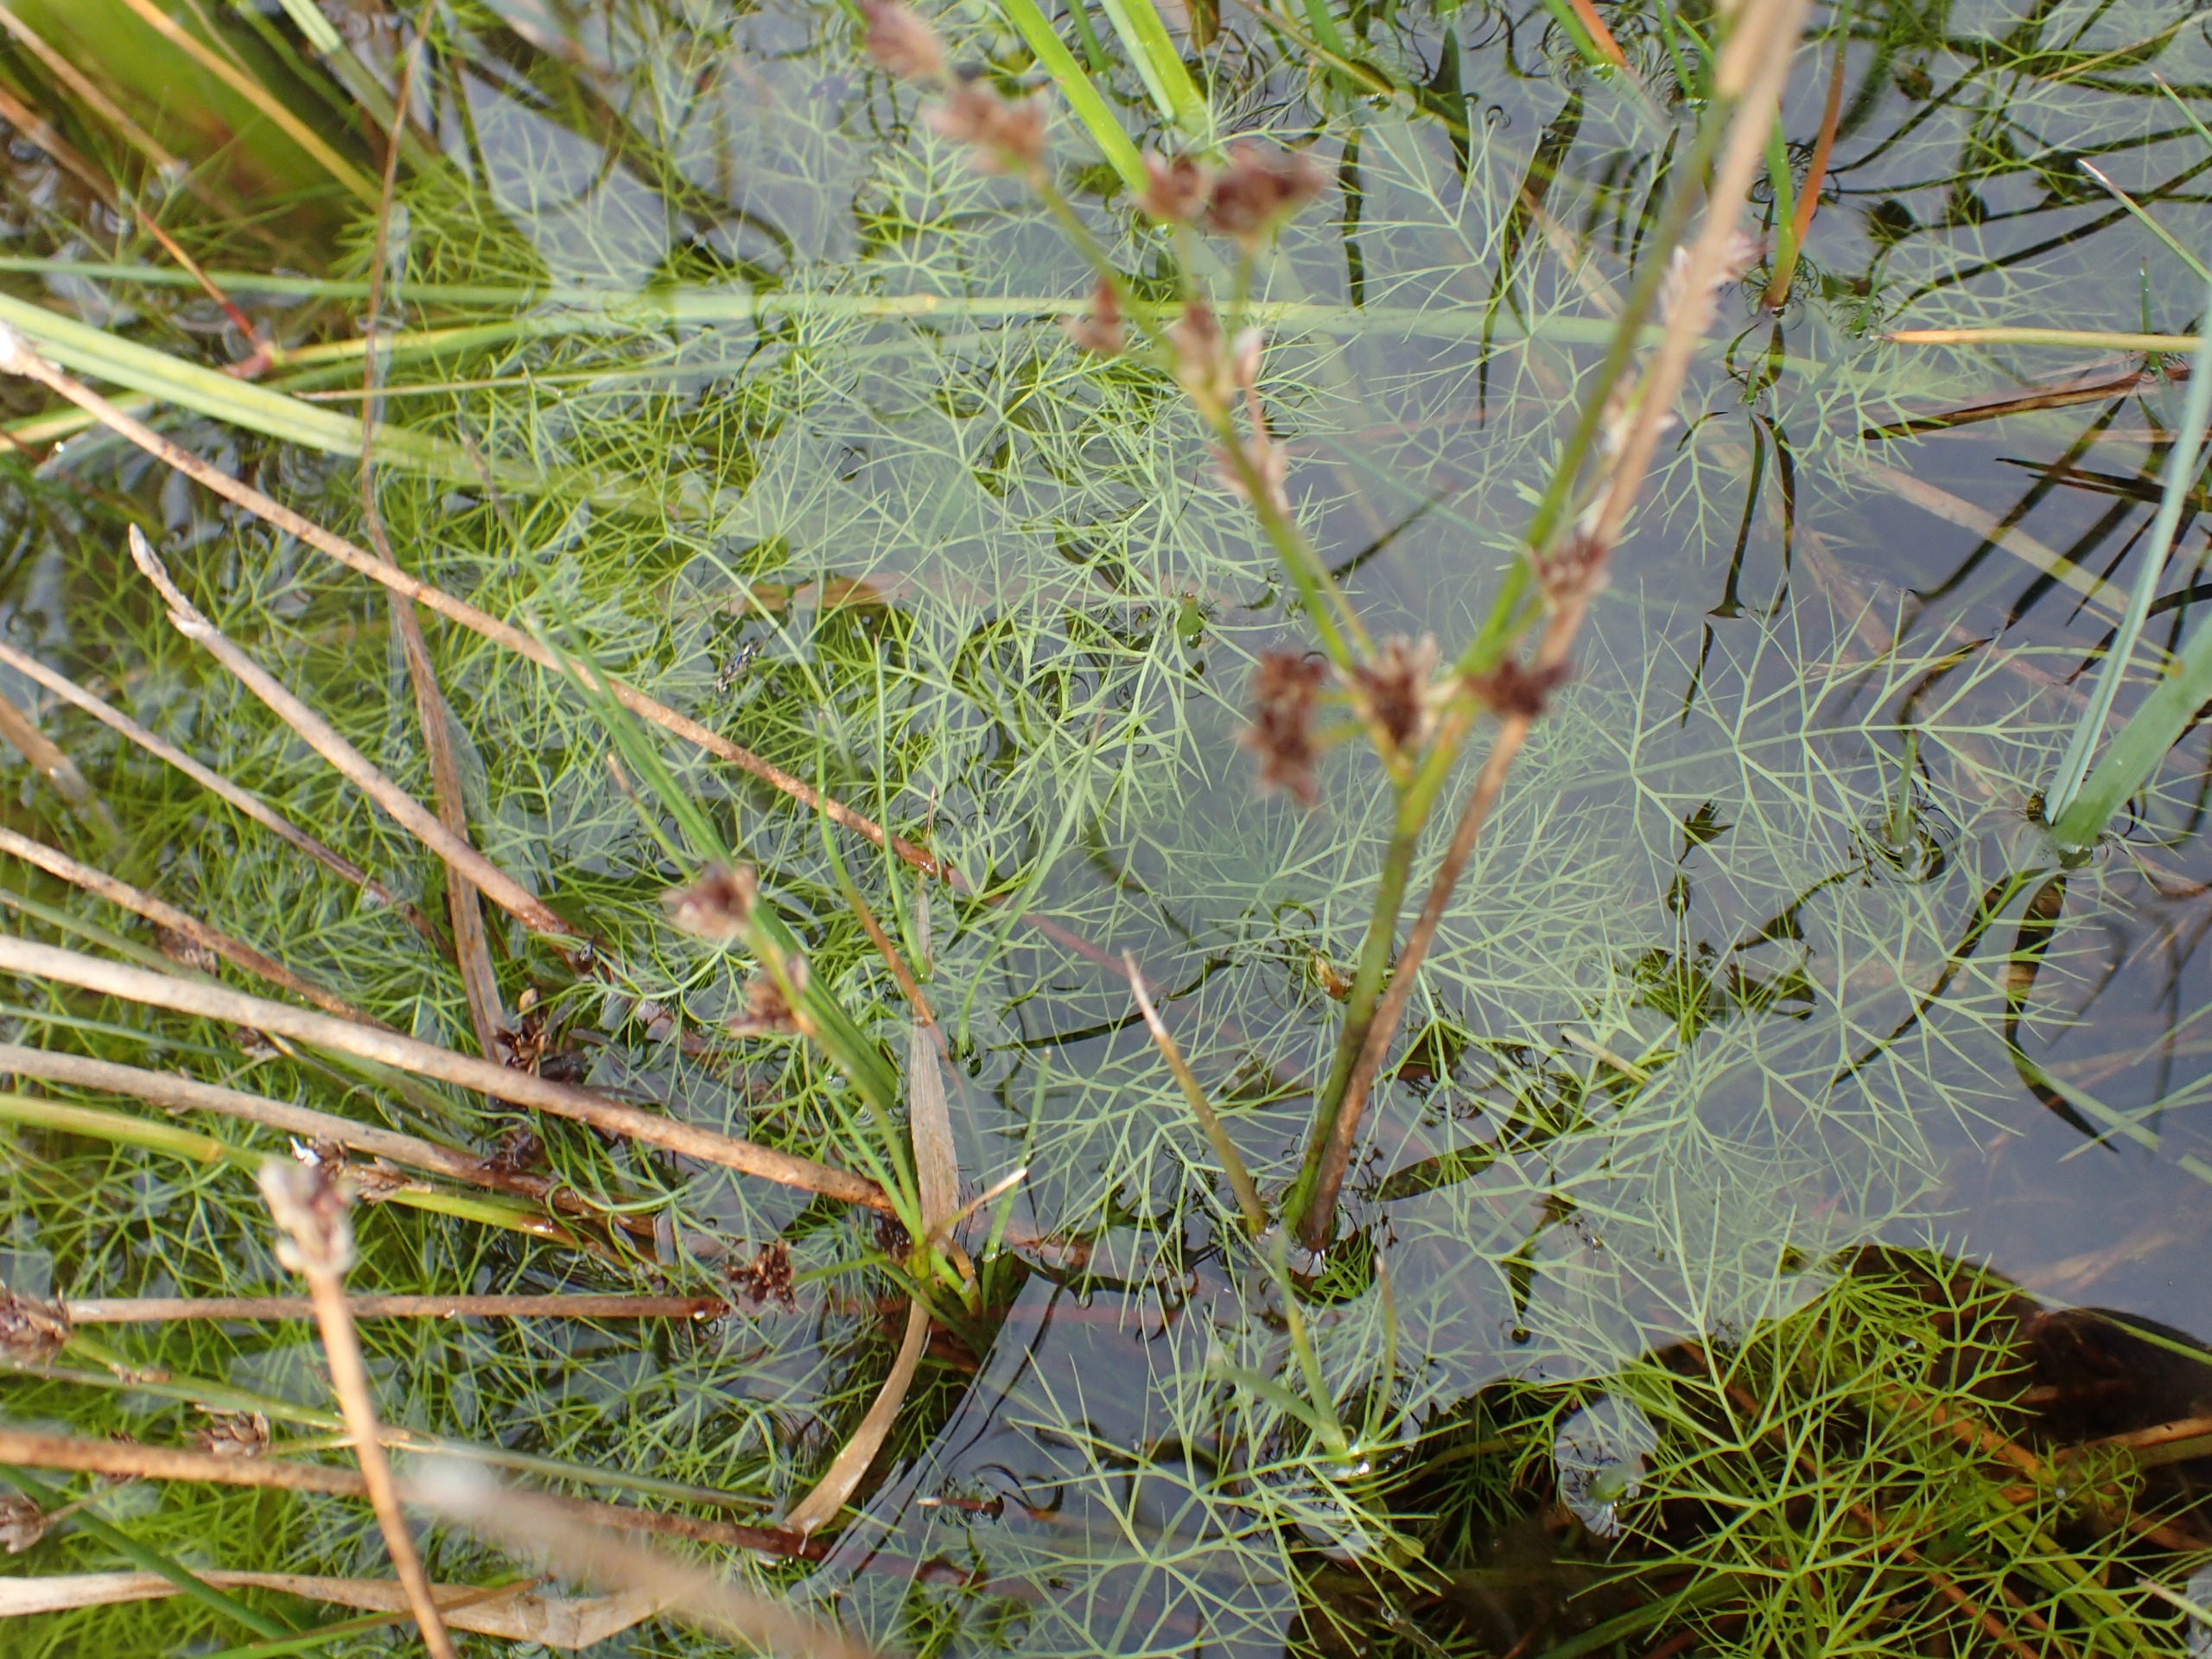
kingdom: Plantae
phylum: Tracheophyta
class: Magnoliopsida
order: Apiales
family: Apiaceae
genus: Helosciadium
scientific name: Helosciadium inundatum
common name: Svømmende sumpskærm (submers form)
